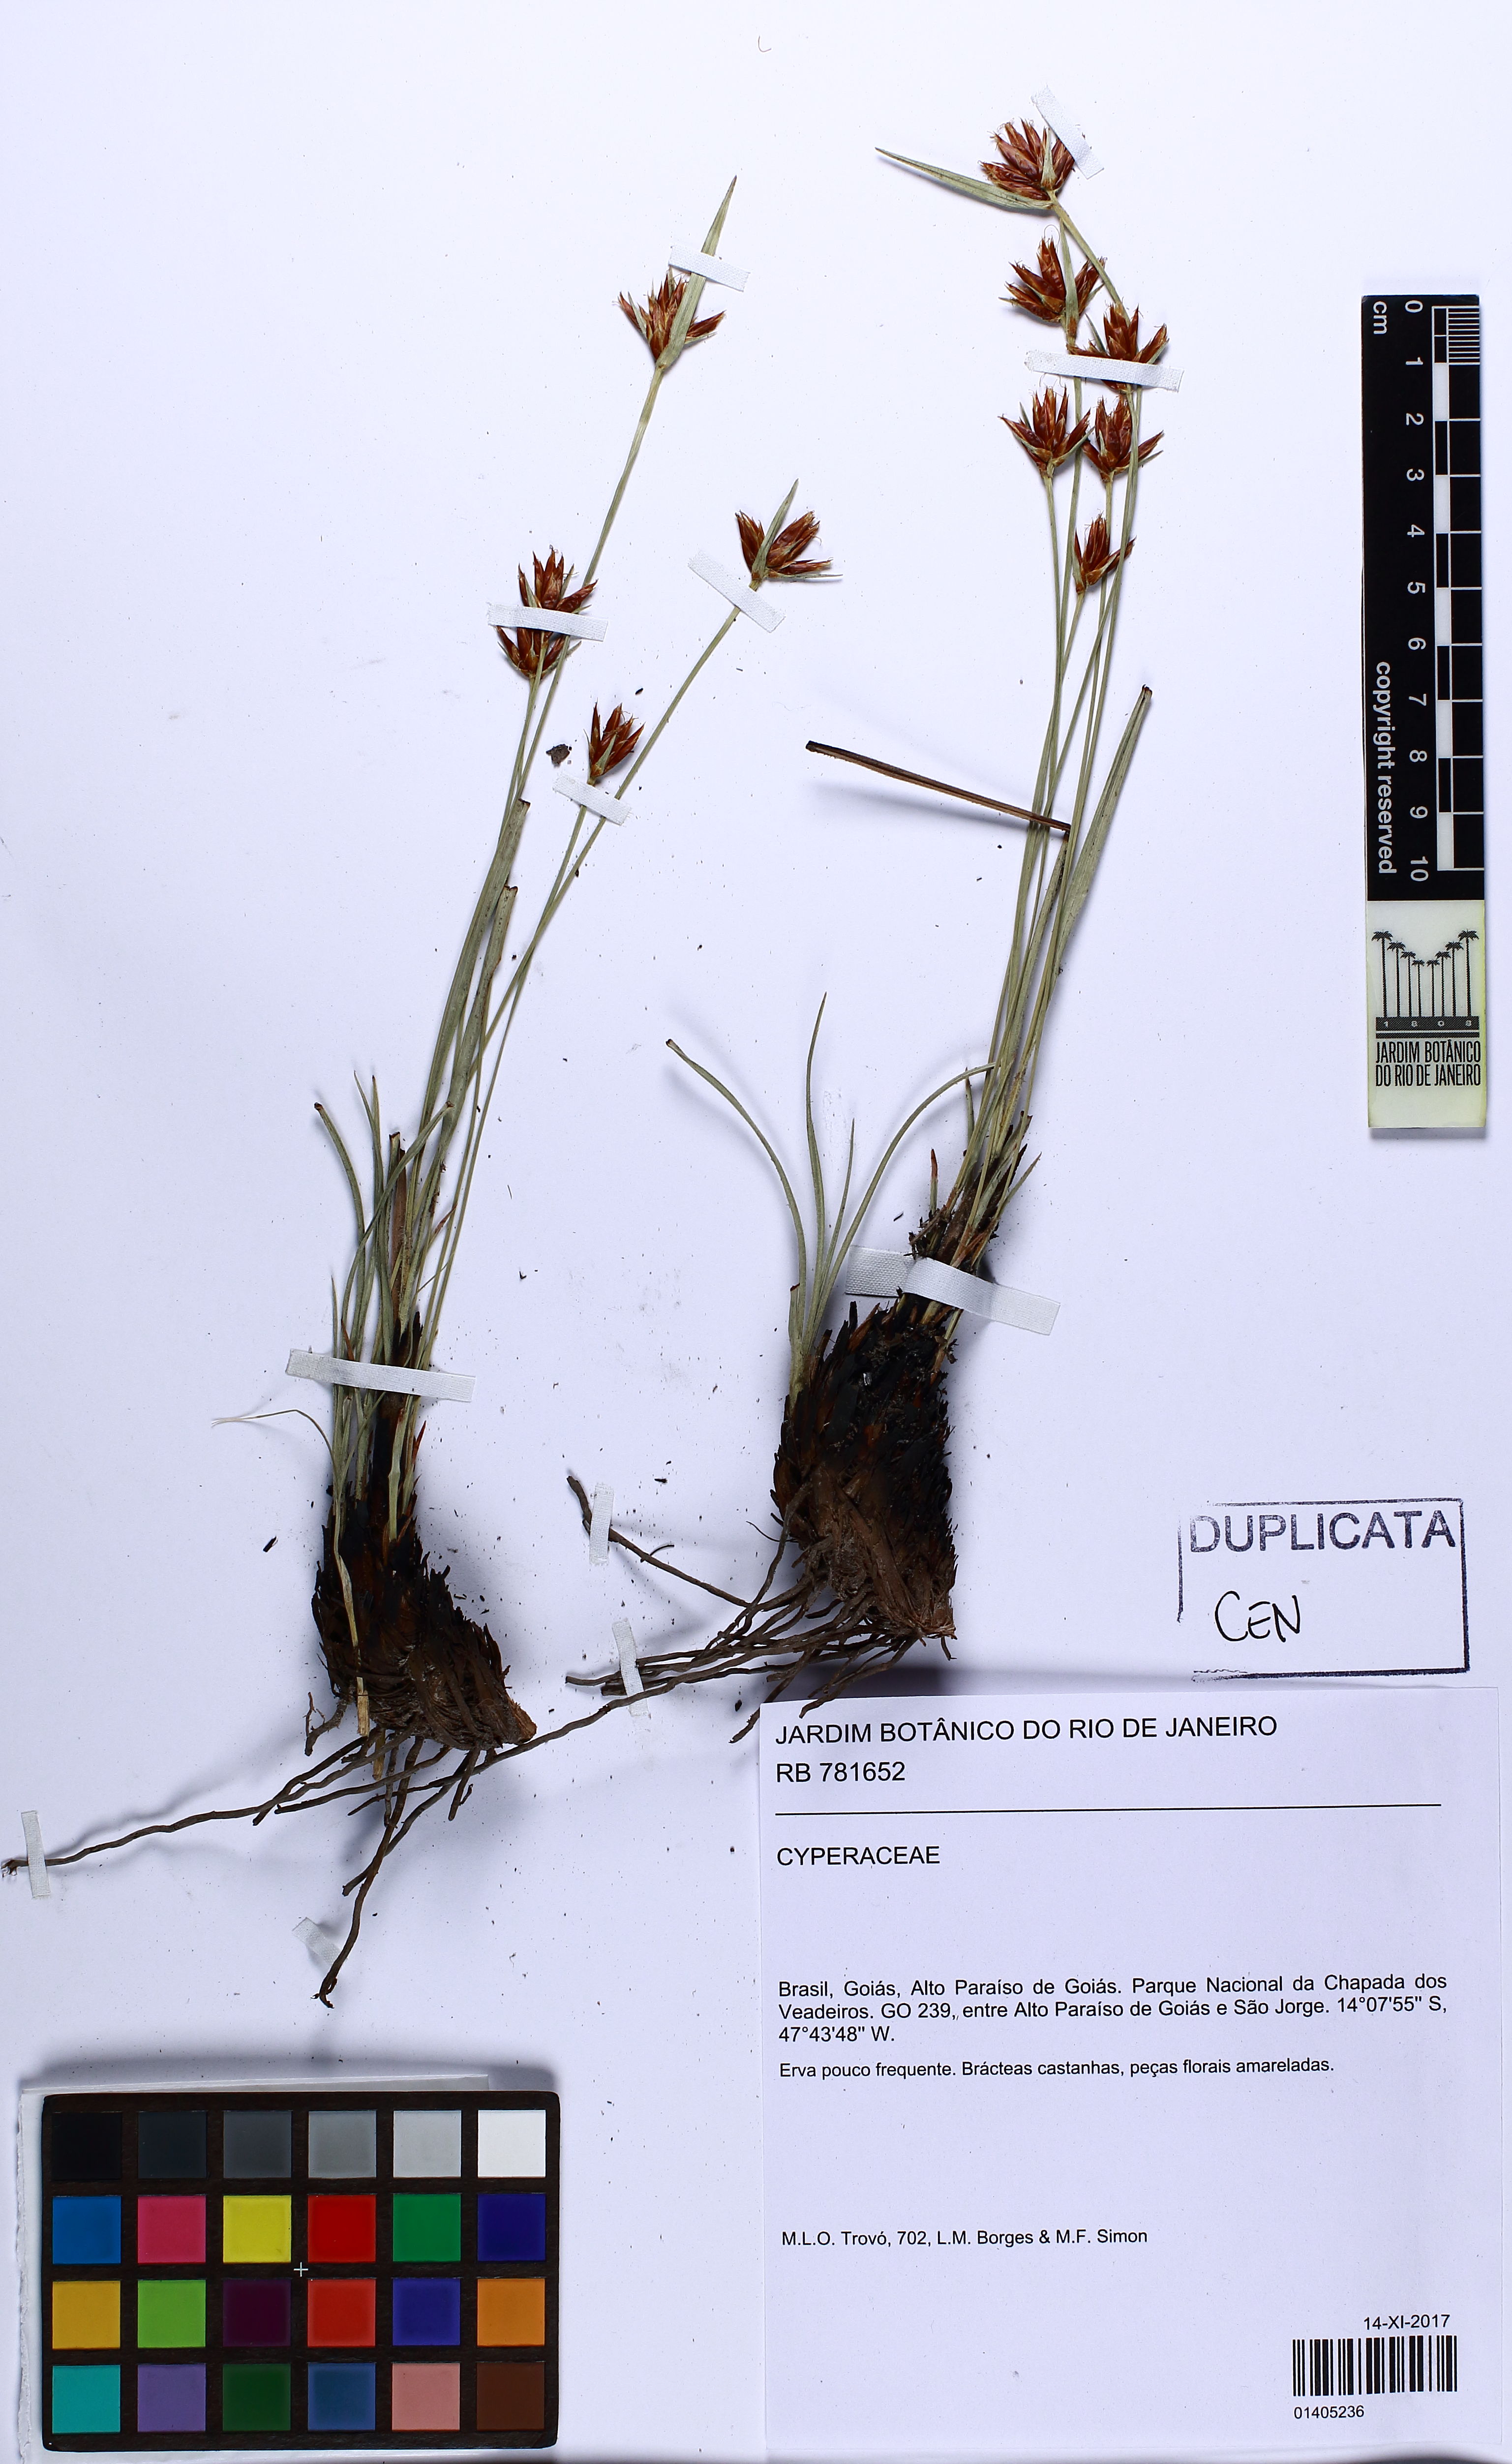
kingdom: Plantae
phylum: Tracheophyta
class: Liliopsida
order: Poales
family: Cyperaceae
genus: Rhynchospora
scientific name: Rhynchospora confusa
